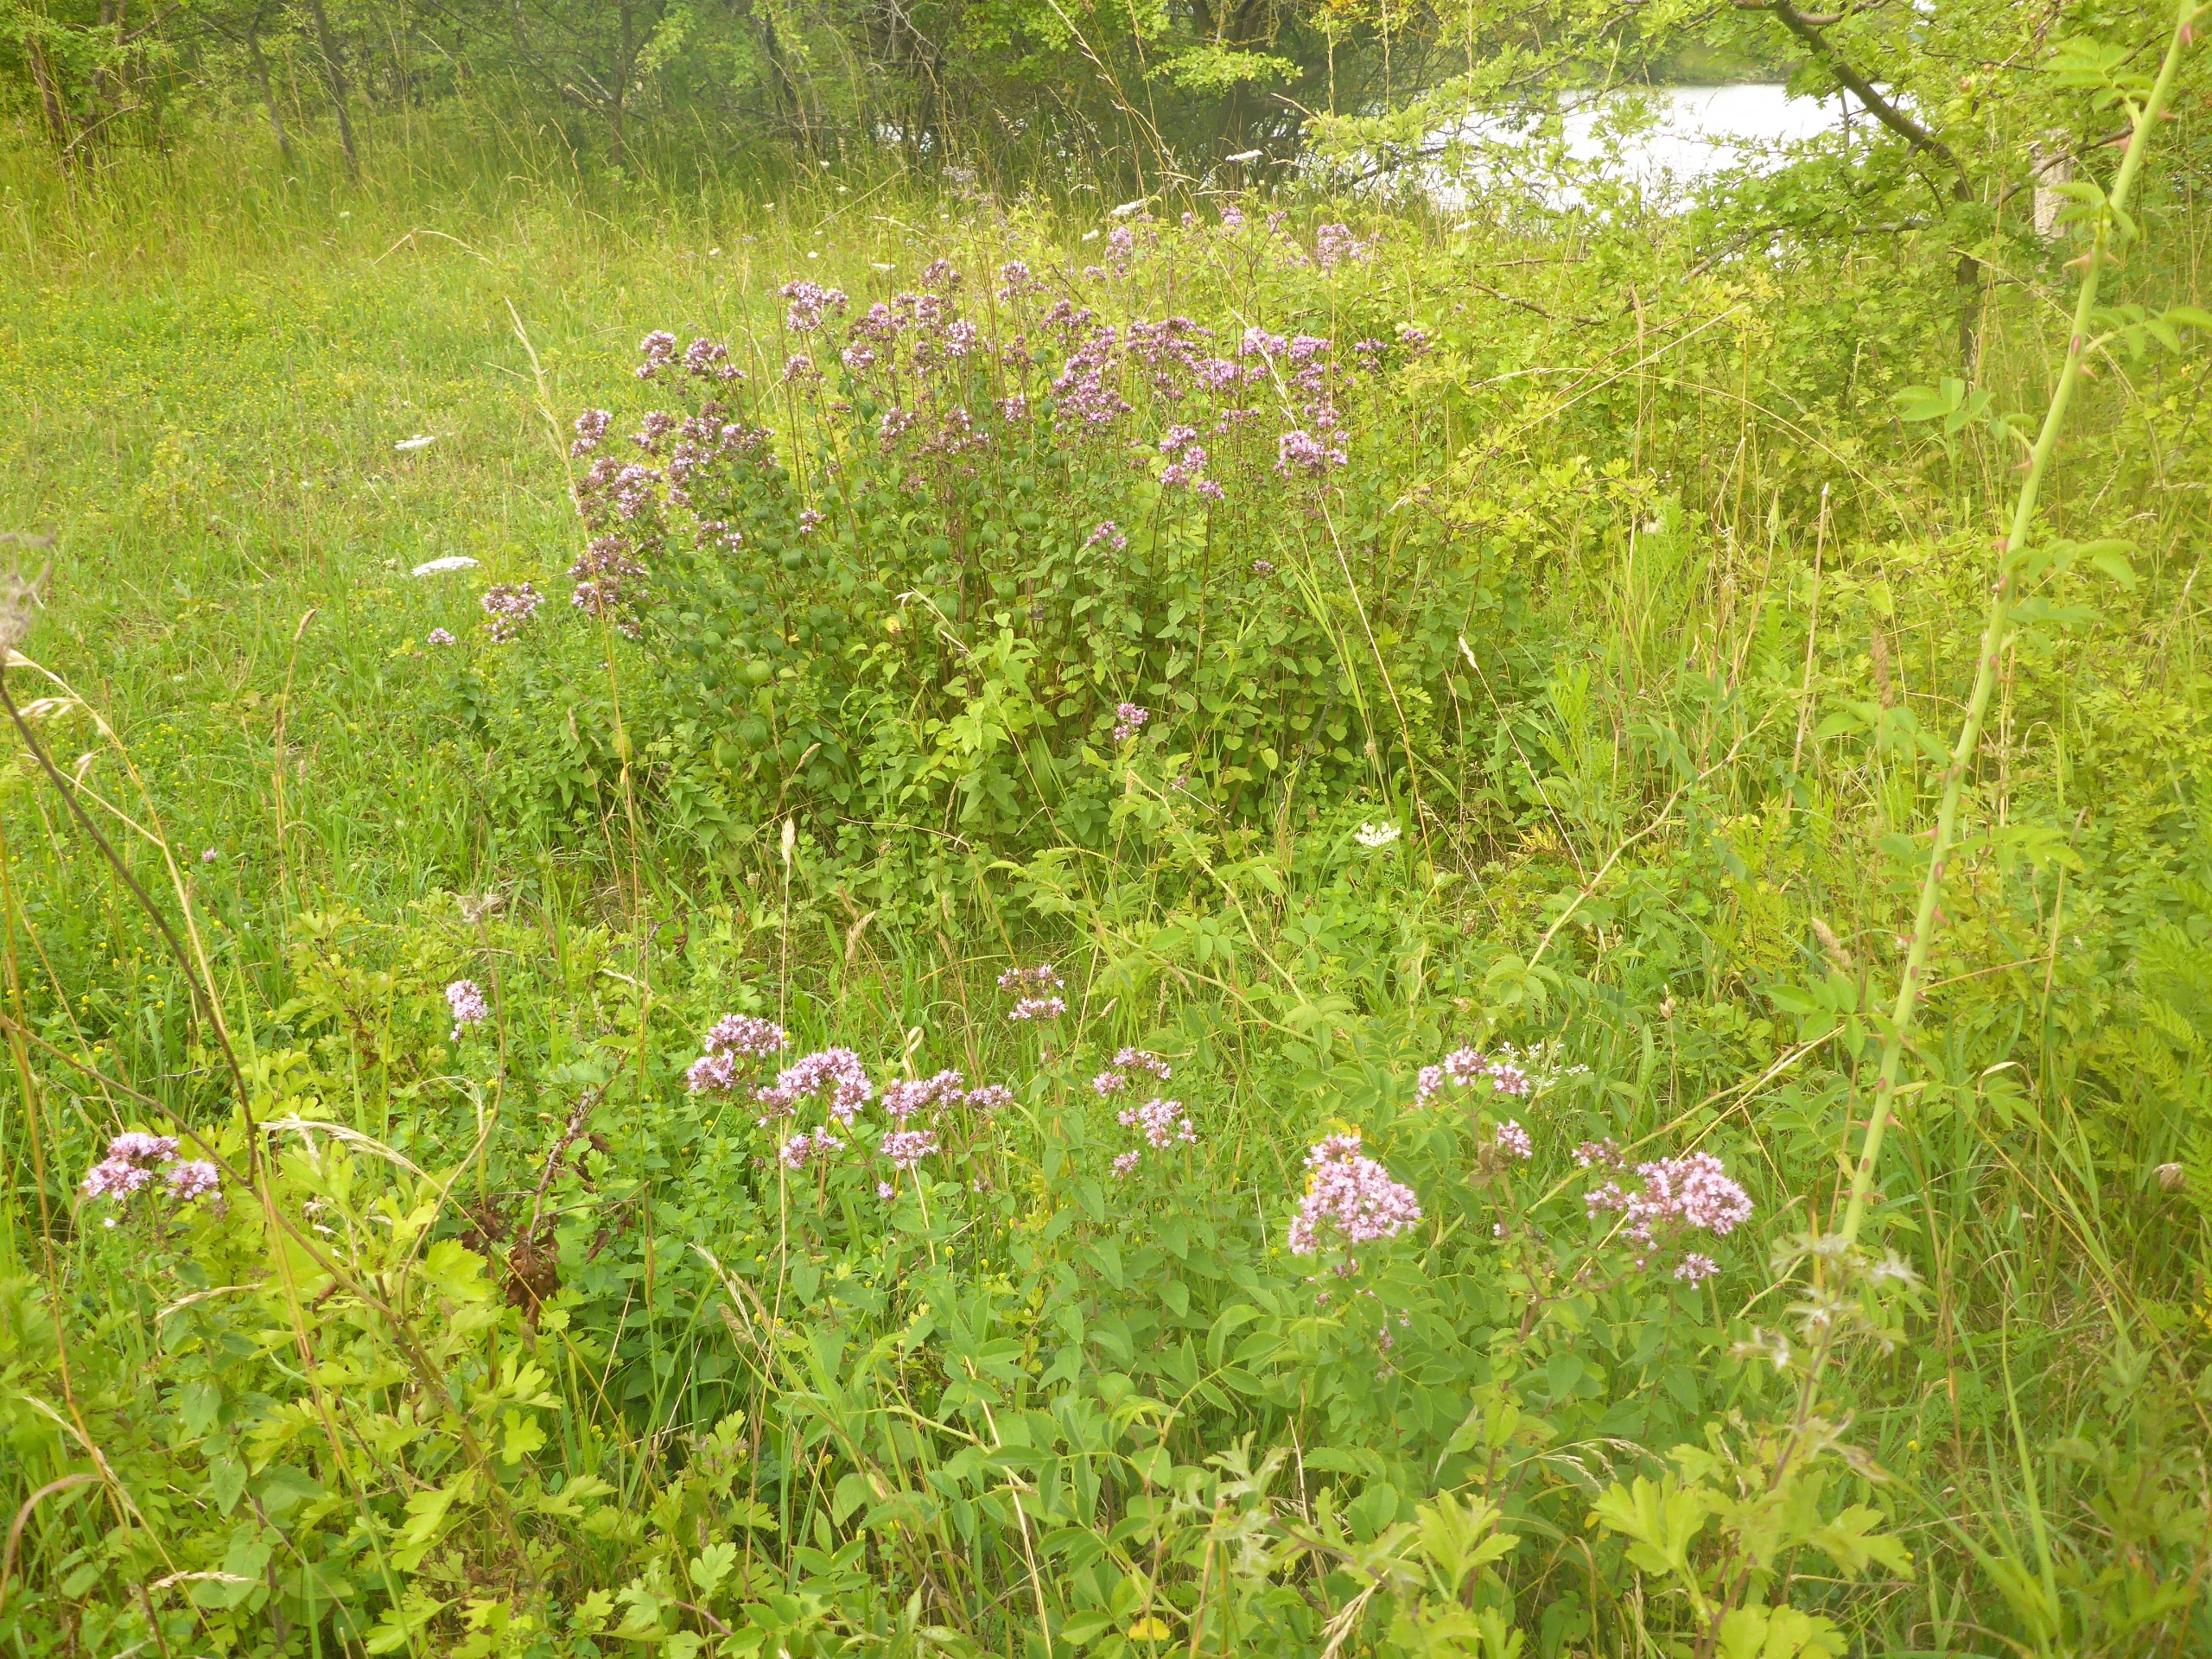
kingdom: Plantae
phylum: Tracheophyta
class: Magnoliopsida
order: Lamiales
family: Lamiaceae
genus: Origanum
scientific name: Origanum vulgare
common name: Merian
